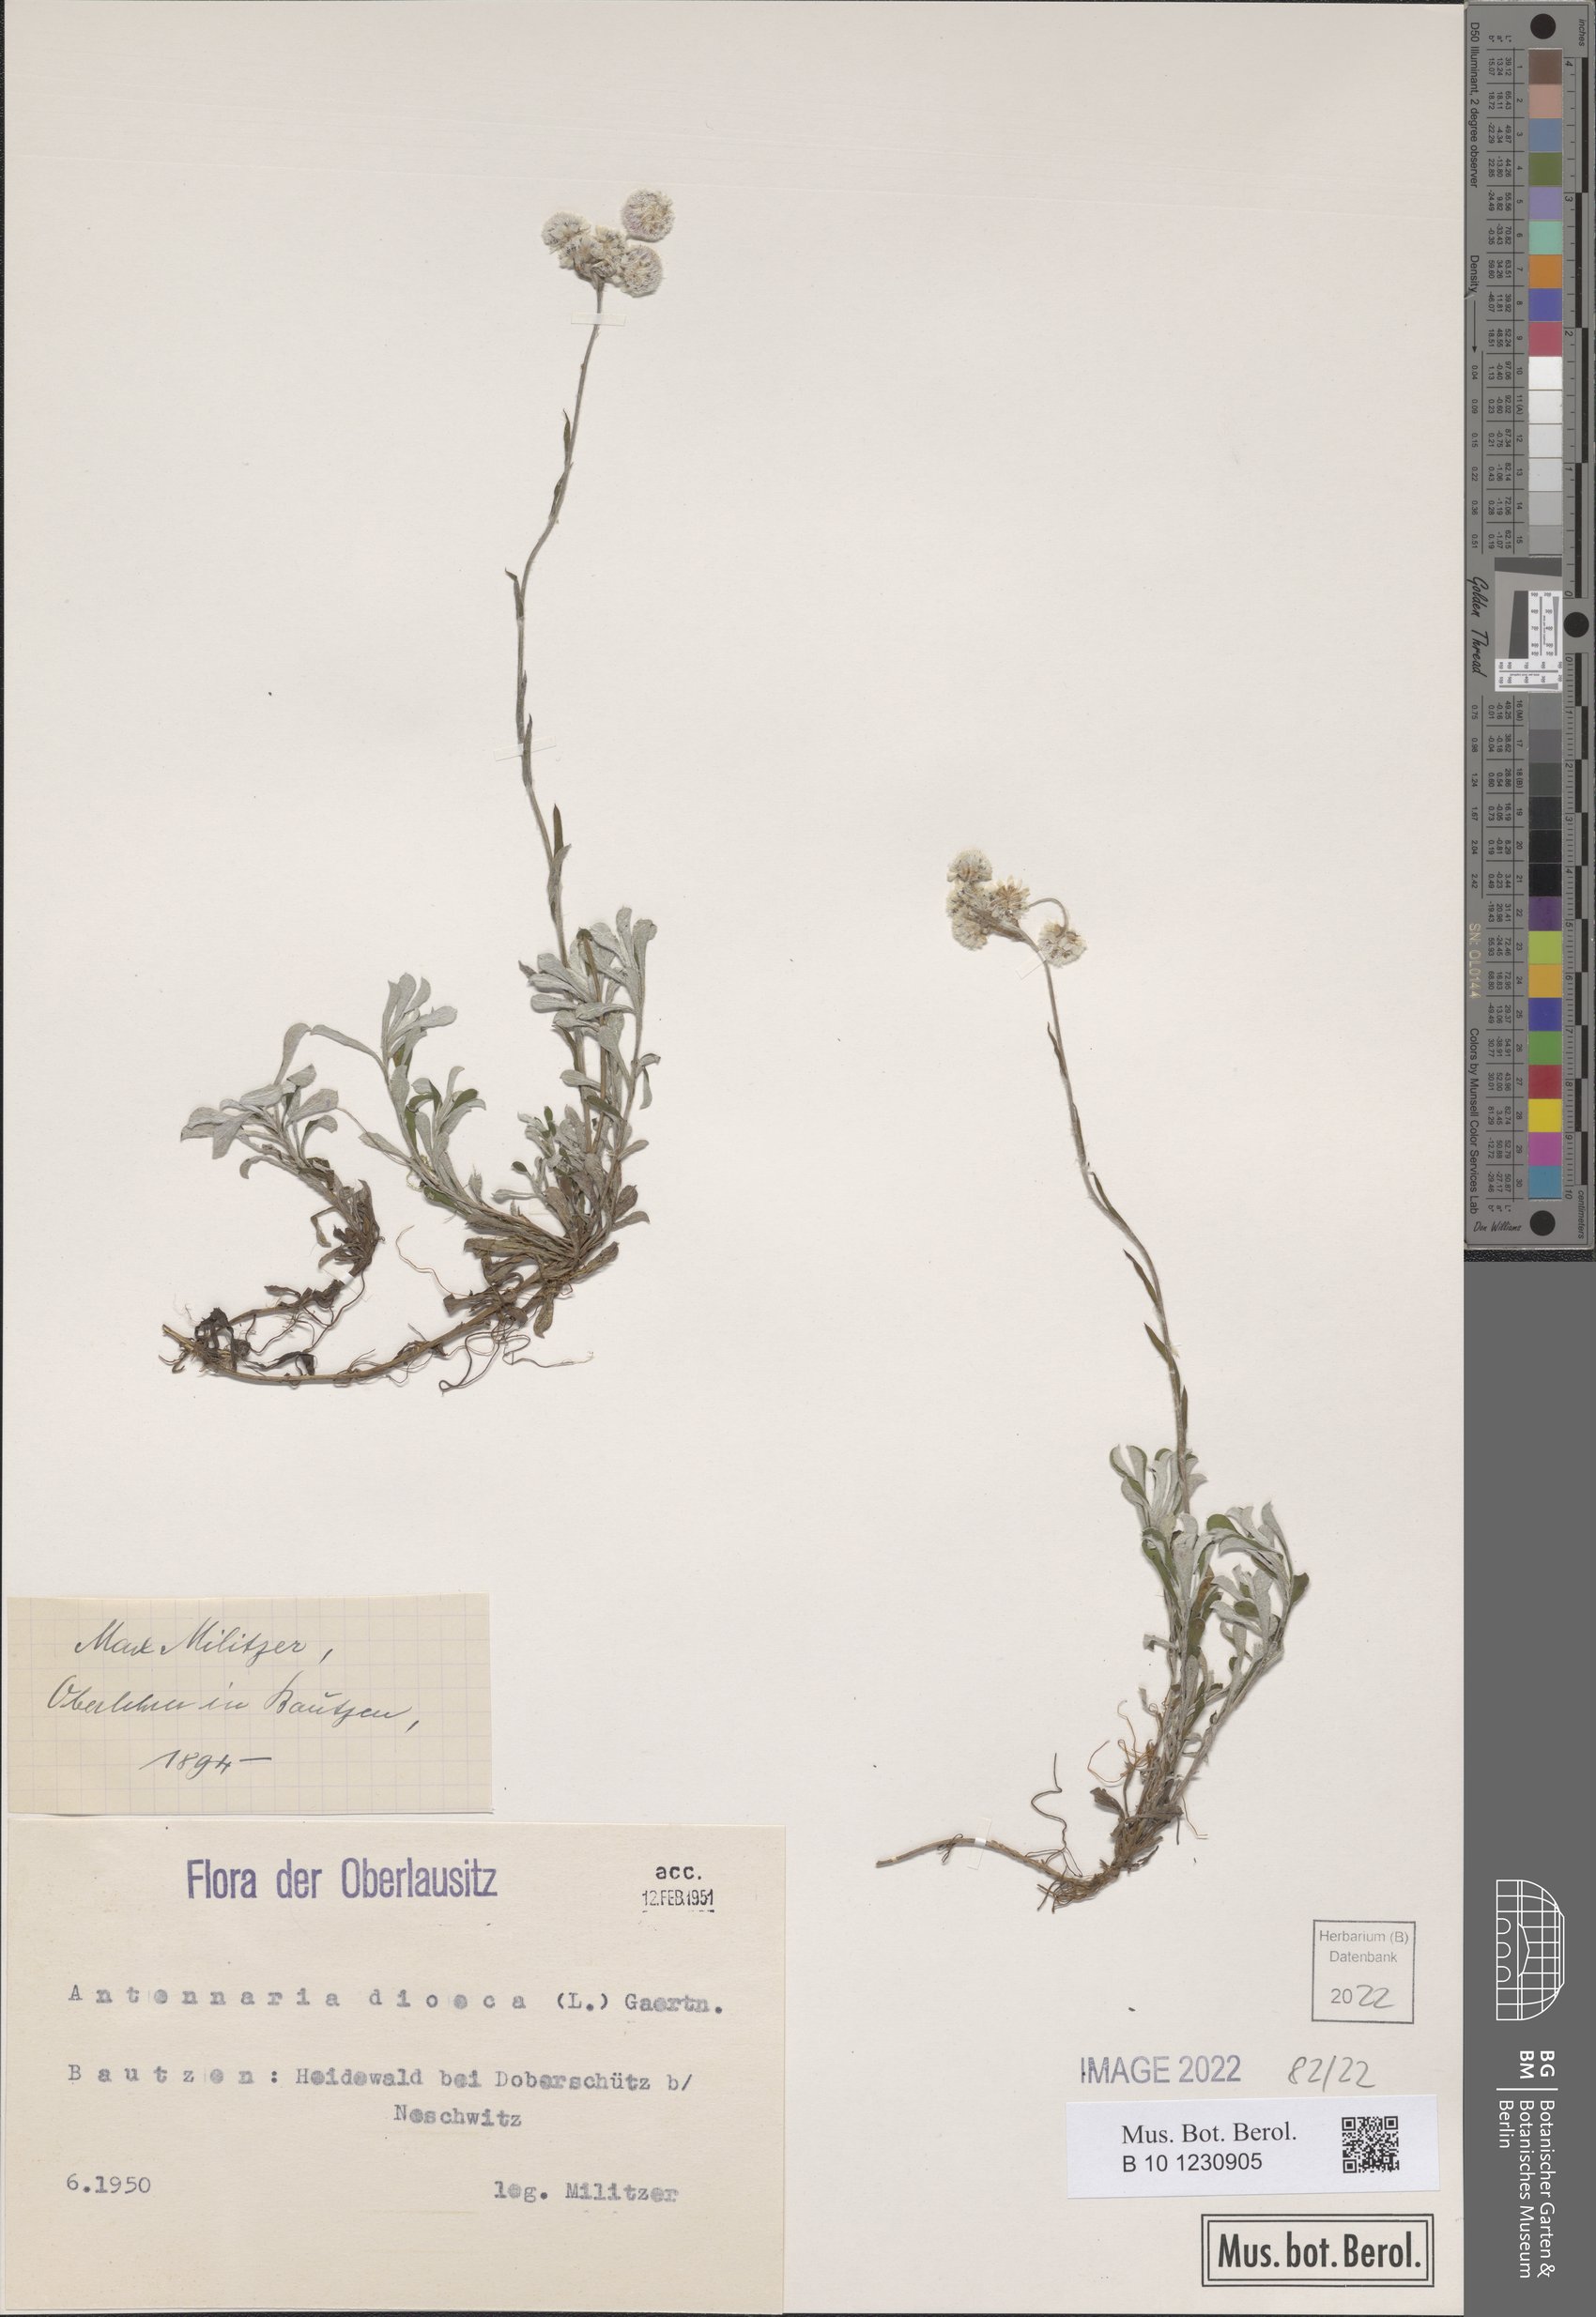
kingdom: Plantae
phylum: Tracheophyta
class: Magnoliopsida
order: Asterales
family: Asteraceae
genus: Antennaria
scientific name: Antennaria dioica
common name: Mountain everlasting
